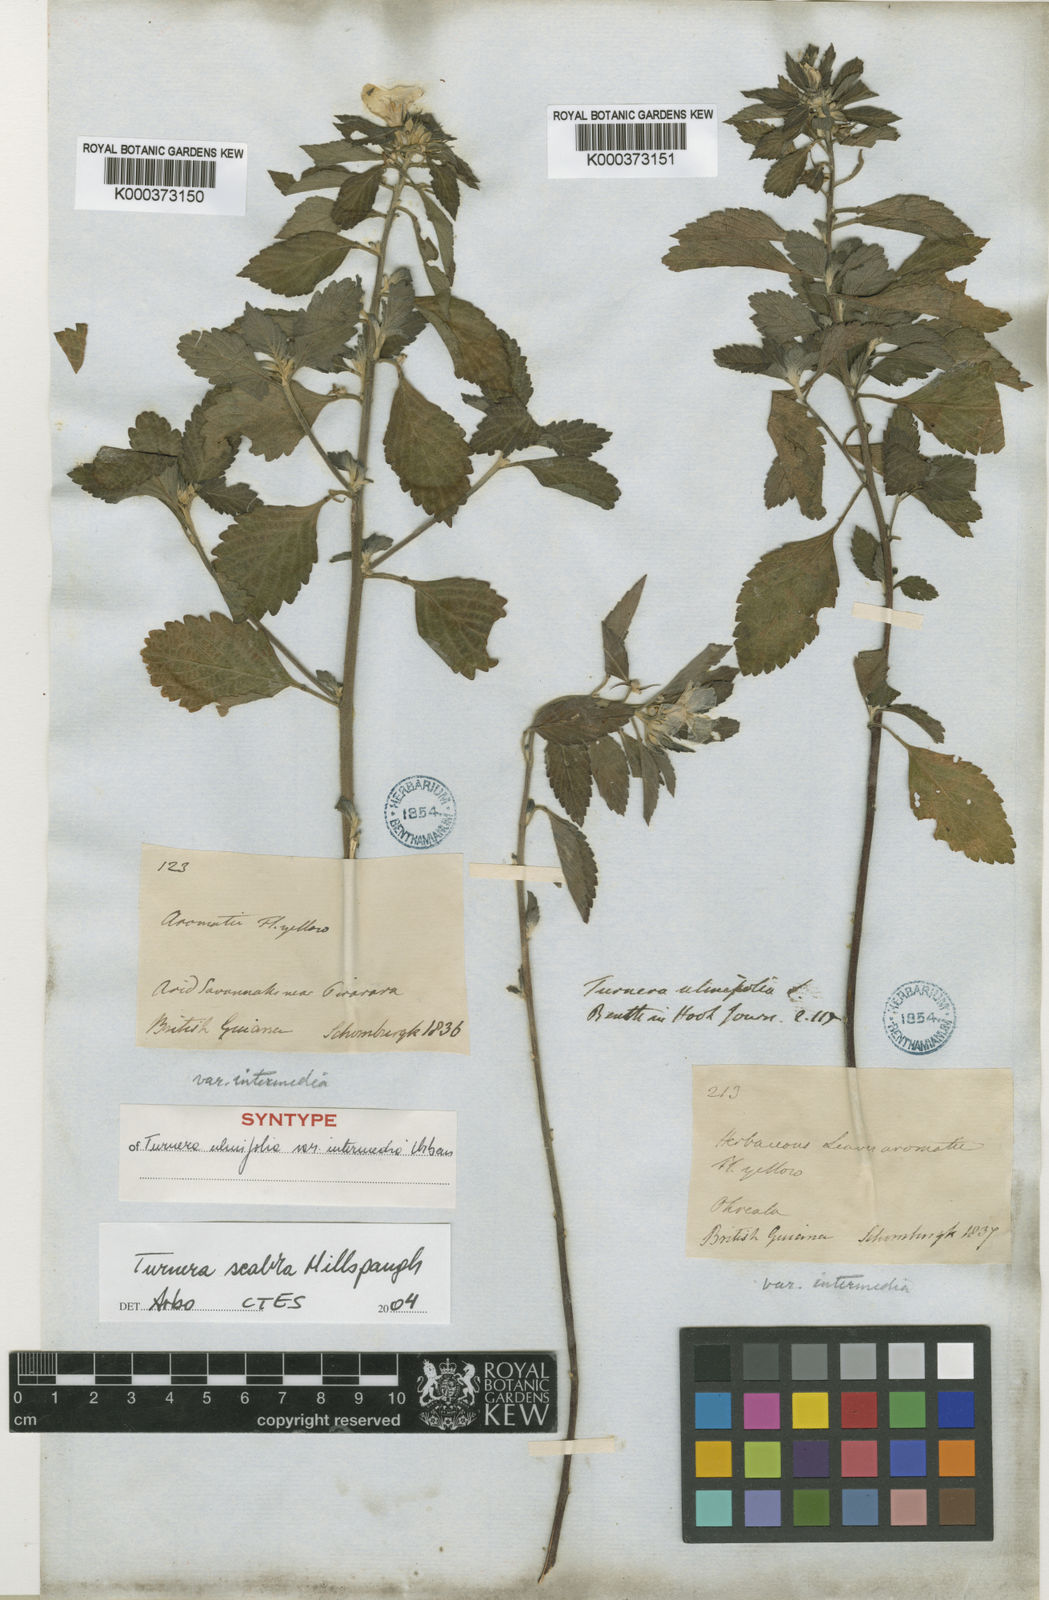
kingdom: Plantae
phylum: Tracheophyta
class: Magnoliopsida
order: Malpighiales
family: Turneraceae
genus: Turnera
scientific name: Turnera scabra
